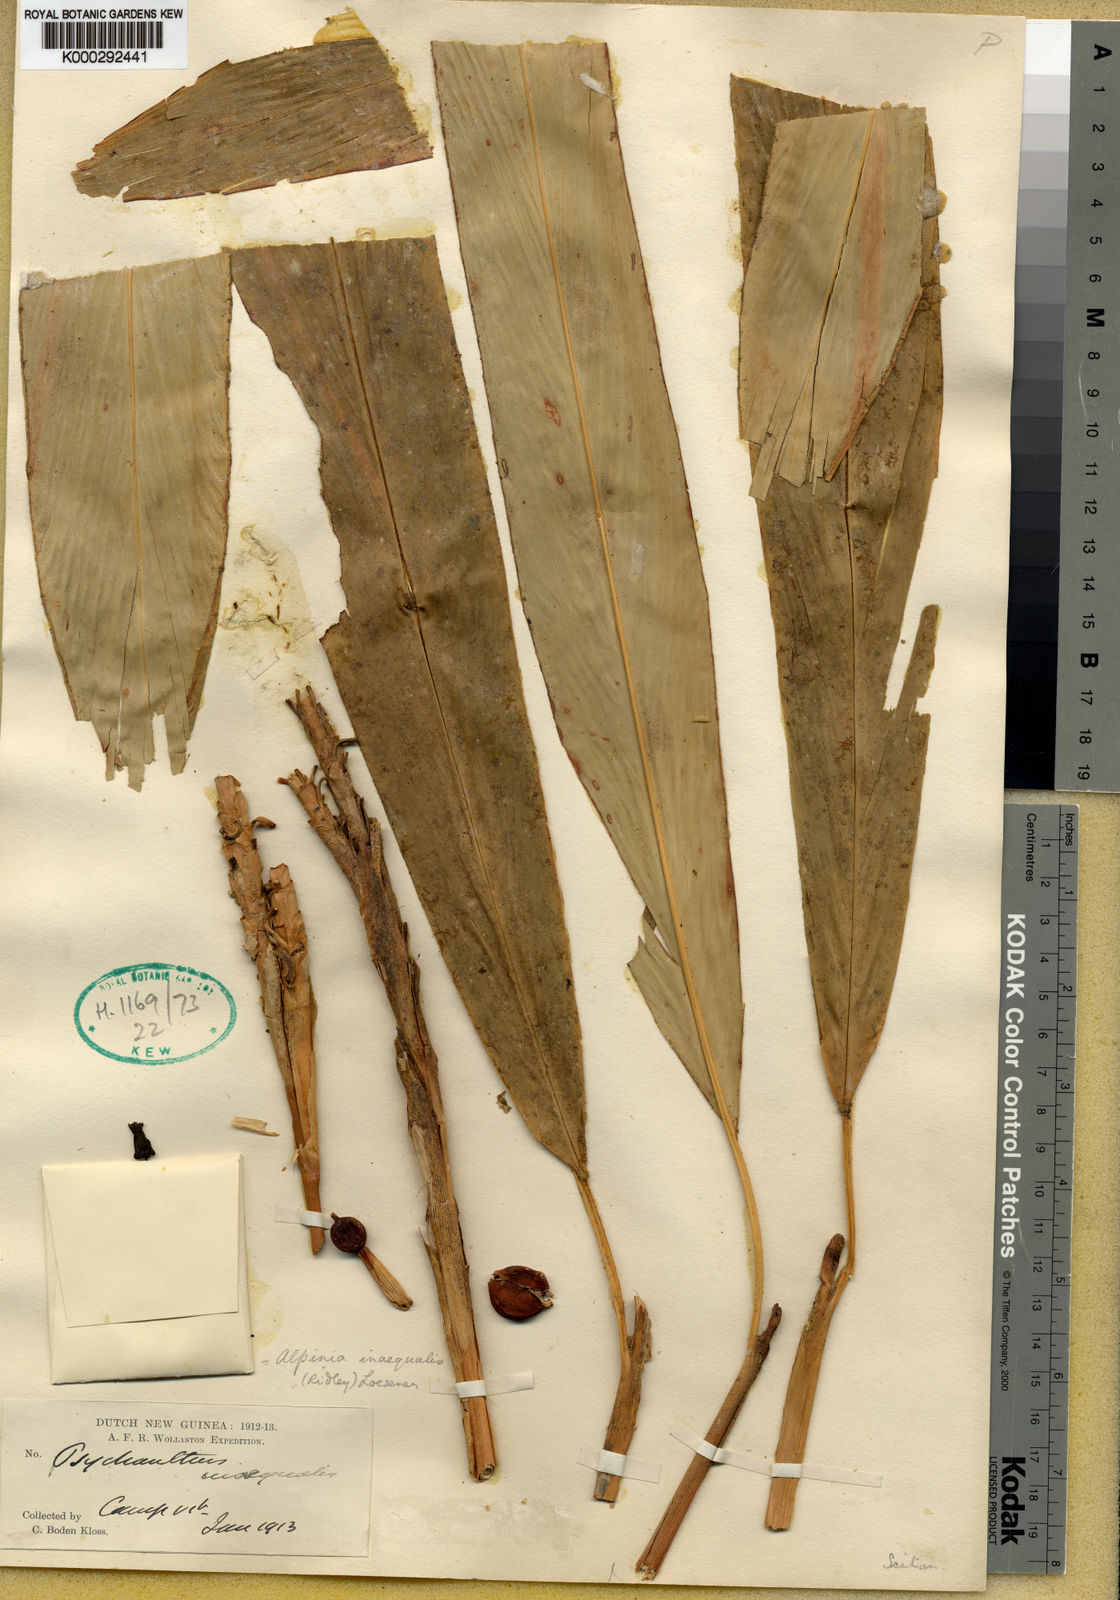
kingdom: Plantae
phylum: Tracheophyta
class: Liliopsida
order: Zingiberales
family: Zingiberaceae
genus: Alpinia
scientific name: Alpinia inaequalis
